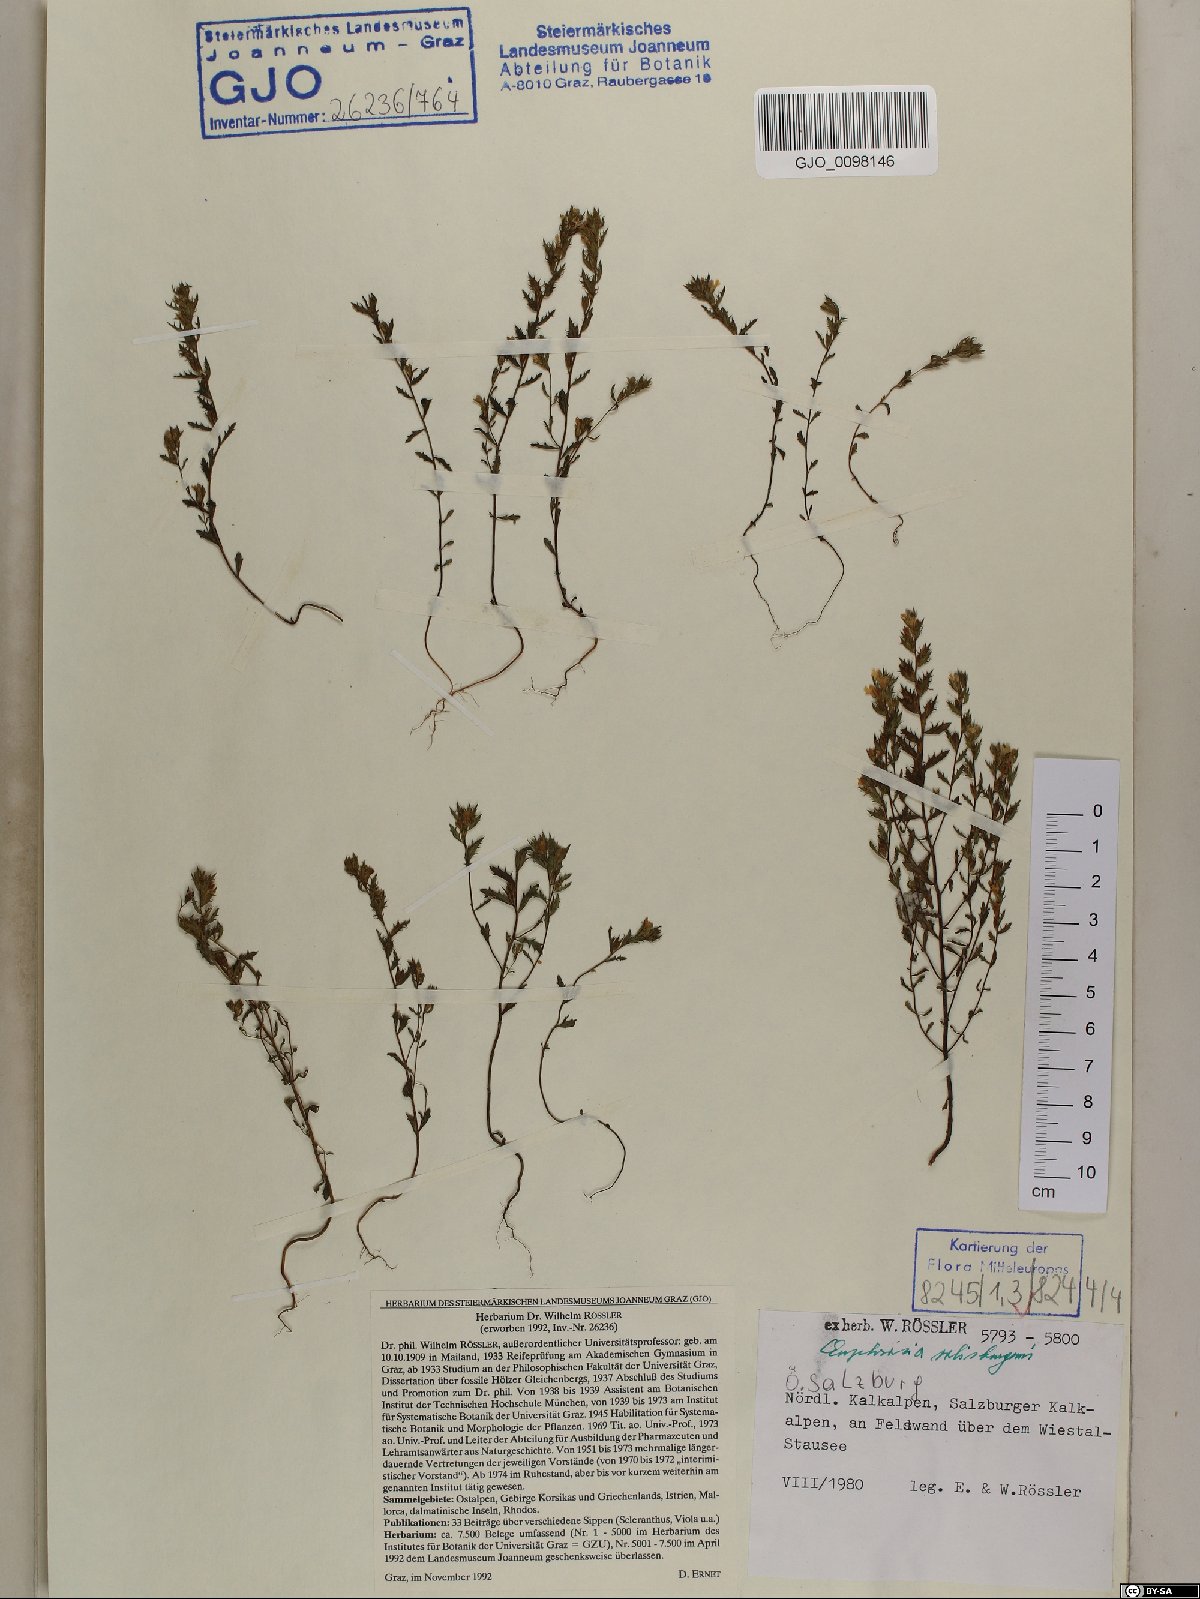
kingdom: Plantae
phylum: Tracheophyta
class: Magnoliopsida
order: Lamiales
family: Orobanchaceae
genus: Euphrasia
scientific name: Euphrasia salisburgensis
